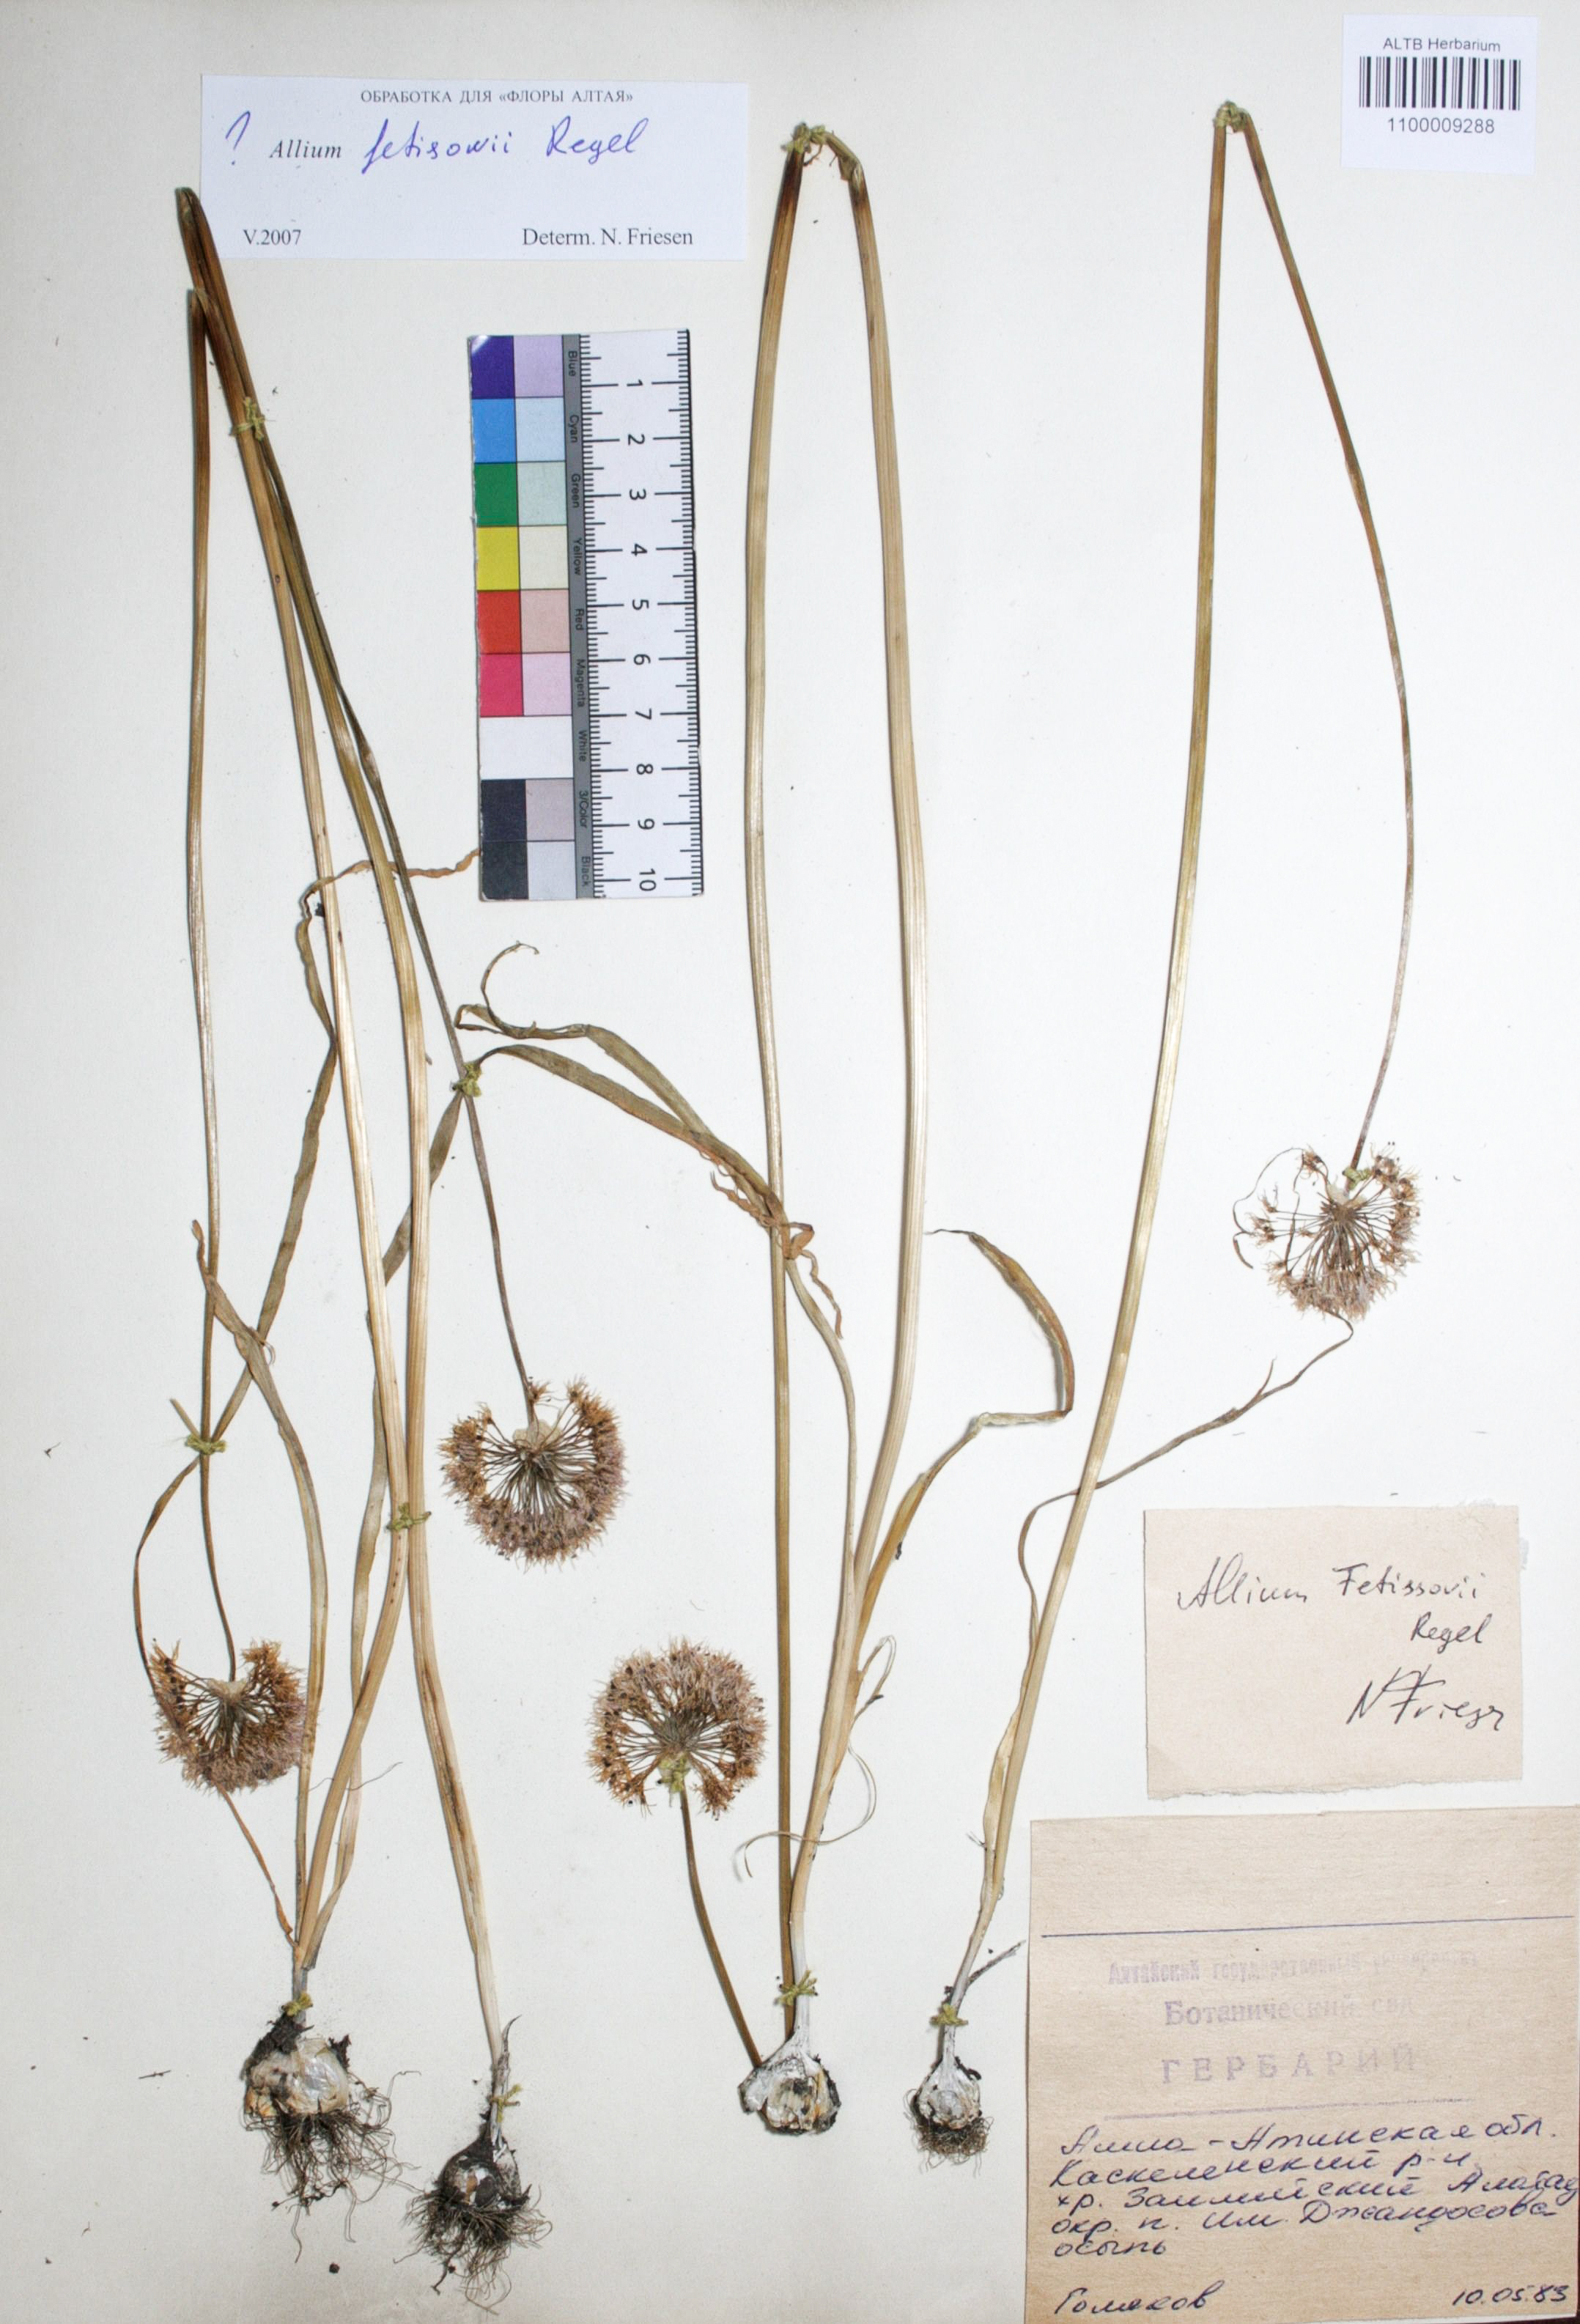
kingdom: Plantae
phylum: Tracheophyta
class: Liliopsida
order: Asparagales
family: Amaryllidaceae
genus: Allium
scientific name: Allium fetisowii
